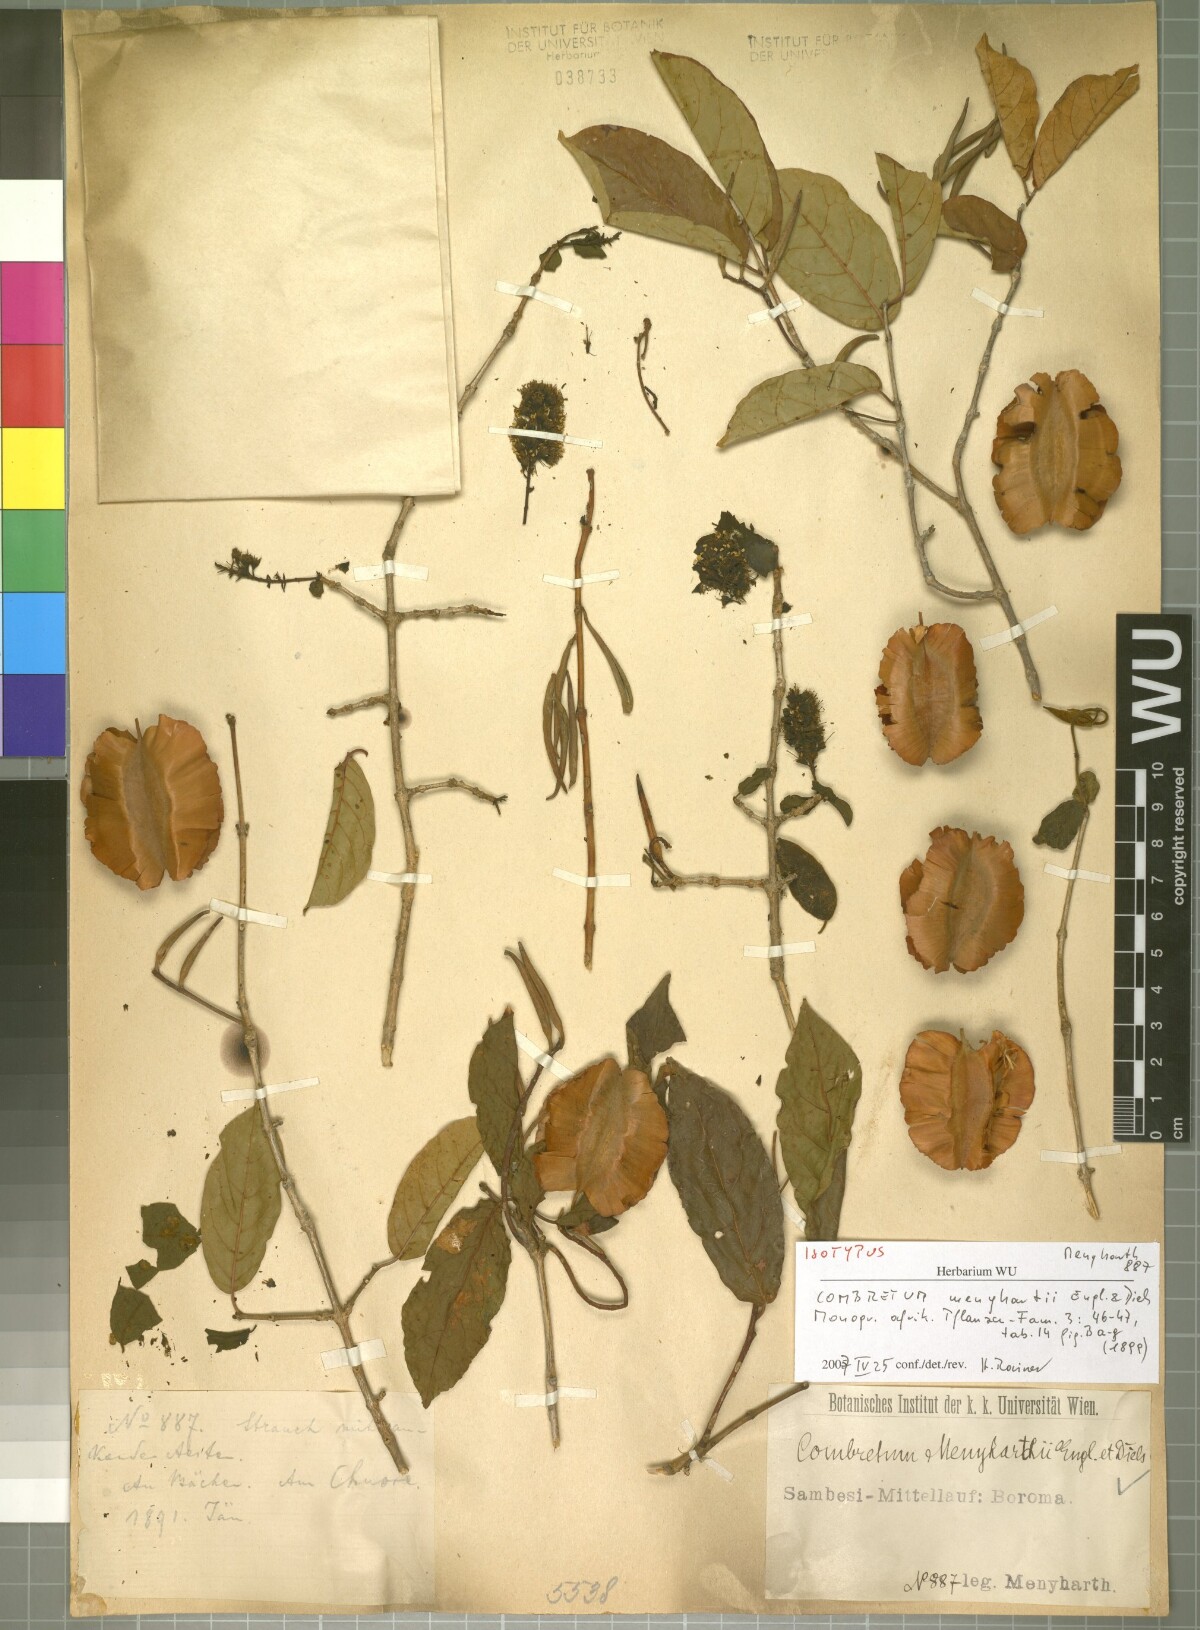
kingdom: Plantae
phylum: Tracheophyta
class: Magnoliopsida
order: Myrtales
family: Combretaceae
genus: Combretum
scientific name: Combretum kirkii
